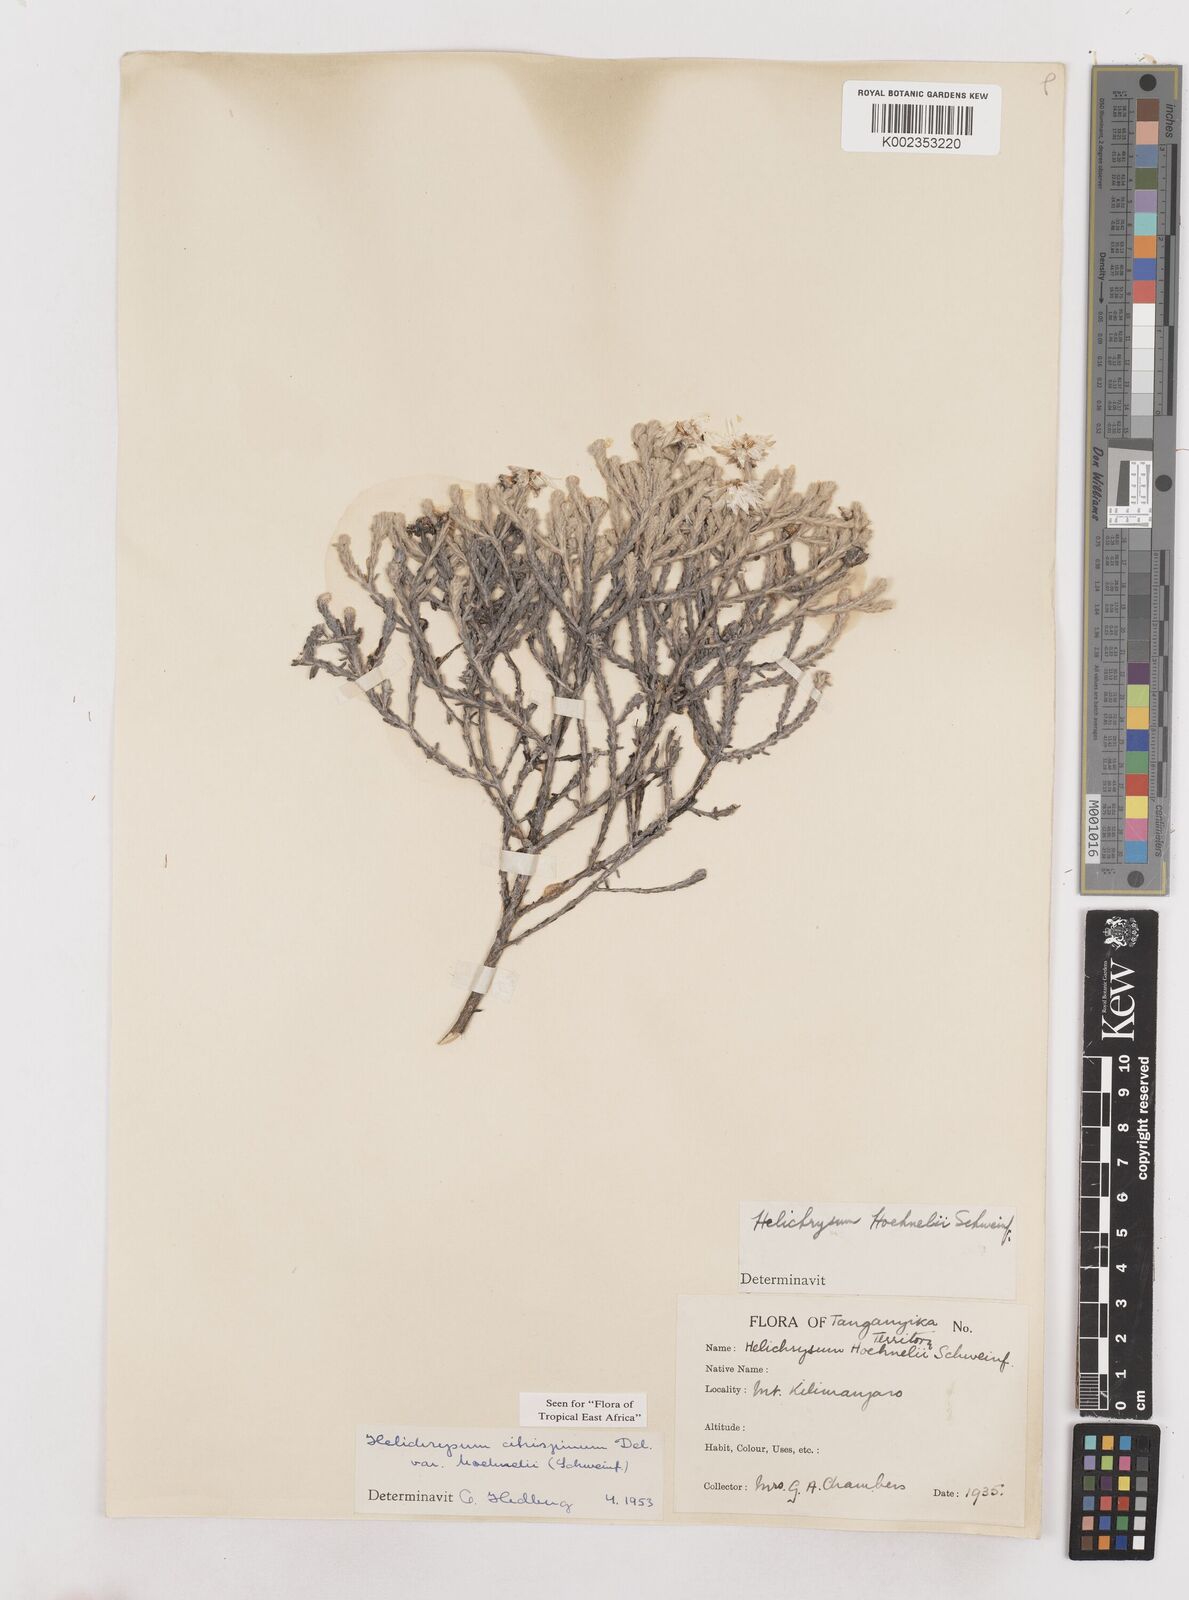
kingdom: Plantae
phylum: Tracheophyta
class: Magnoliopsida
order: Asterales
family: Asteraceae
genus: Helichrysum
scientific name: Helichrysum citrispinum
